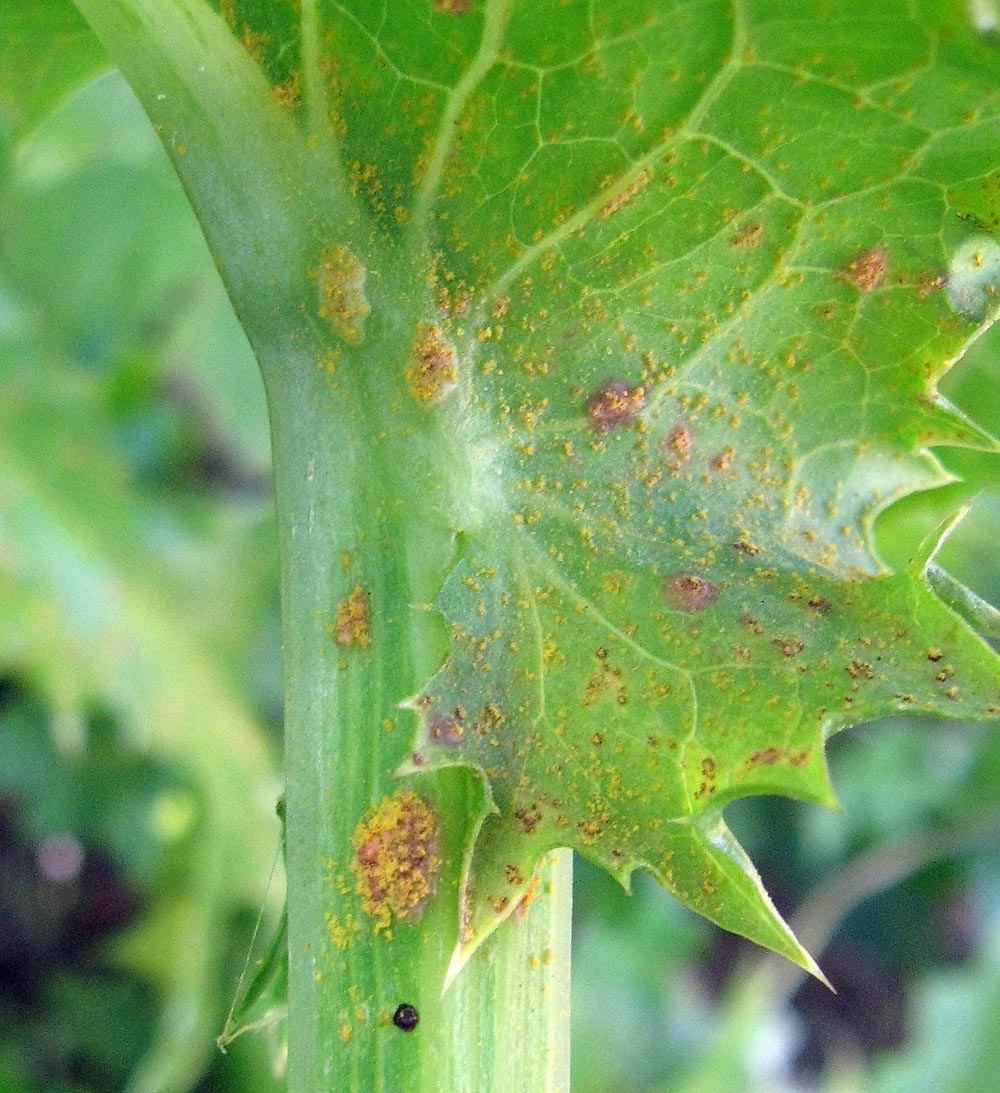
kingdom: Fungi
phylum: Basidiomycota
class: Pucciniomycetes
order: Pucciniales
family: Pucciniaceae
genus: Peristemma
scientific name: Peristemma pseudosphaeria
